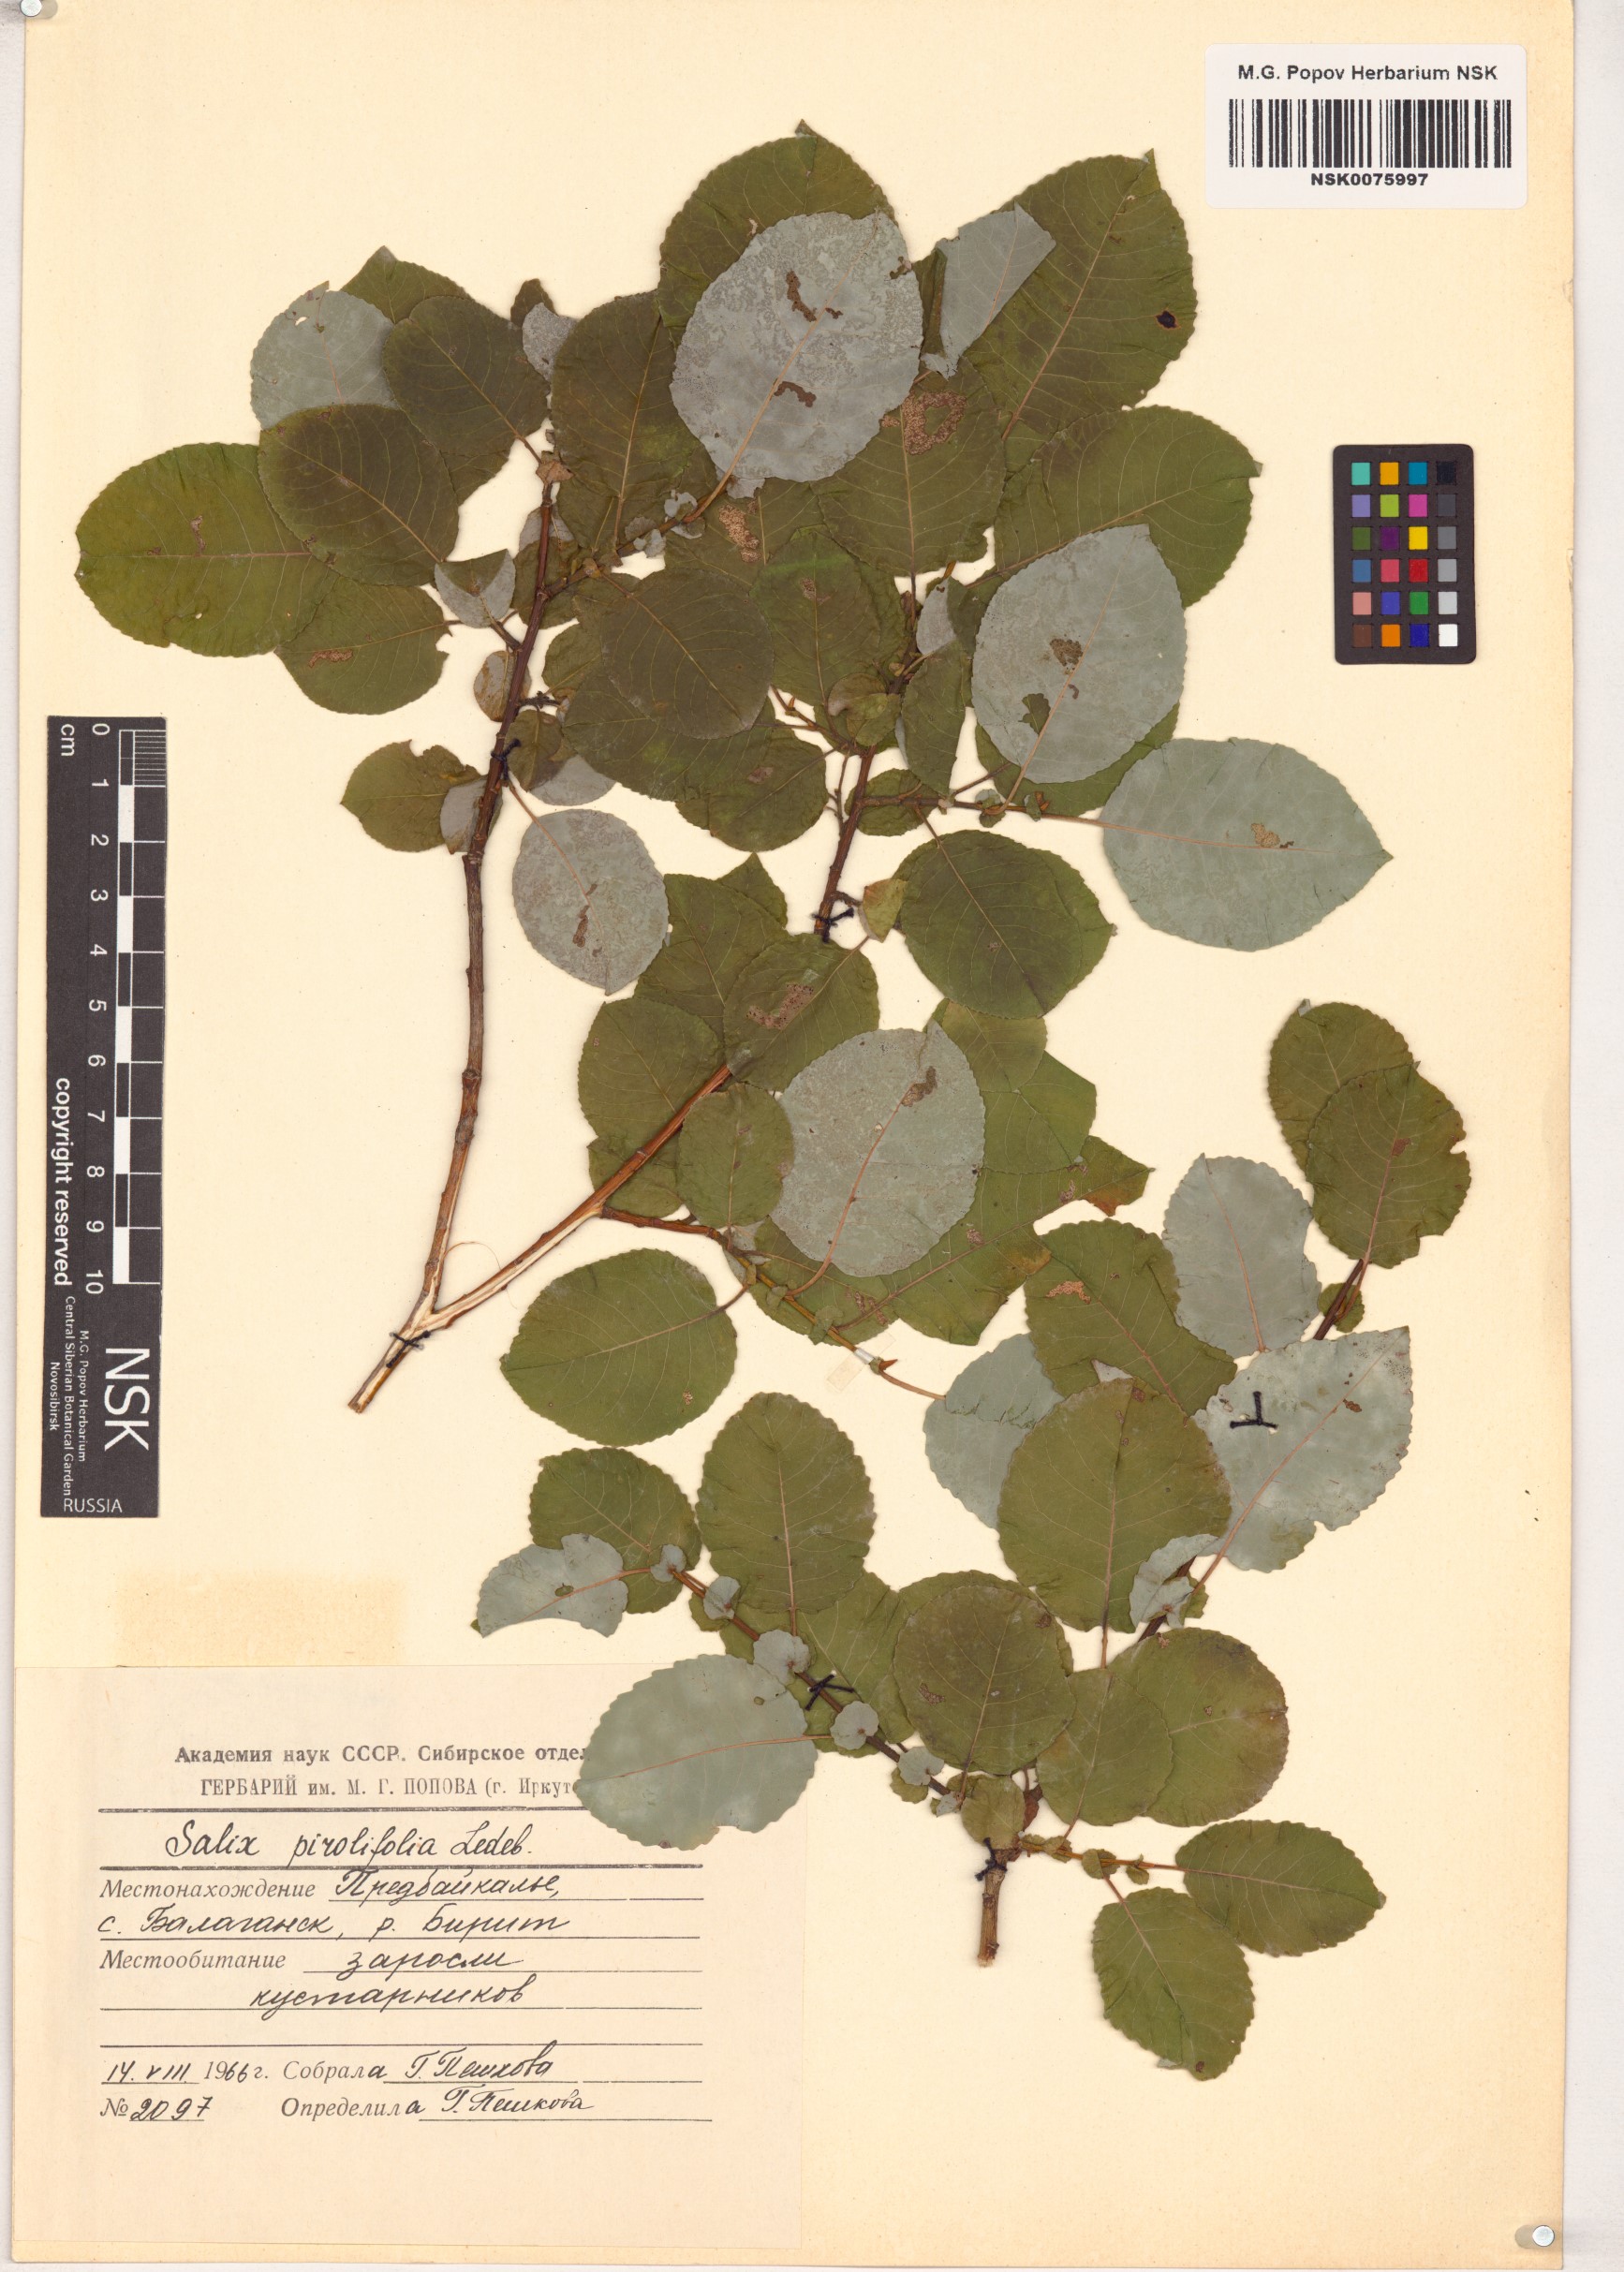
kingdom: Plantae
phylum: Tracheophyta
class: Magnoliopsida
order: Malpighiales
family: Salicaceae
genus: Salix
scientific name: Salix pyrolifolia
